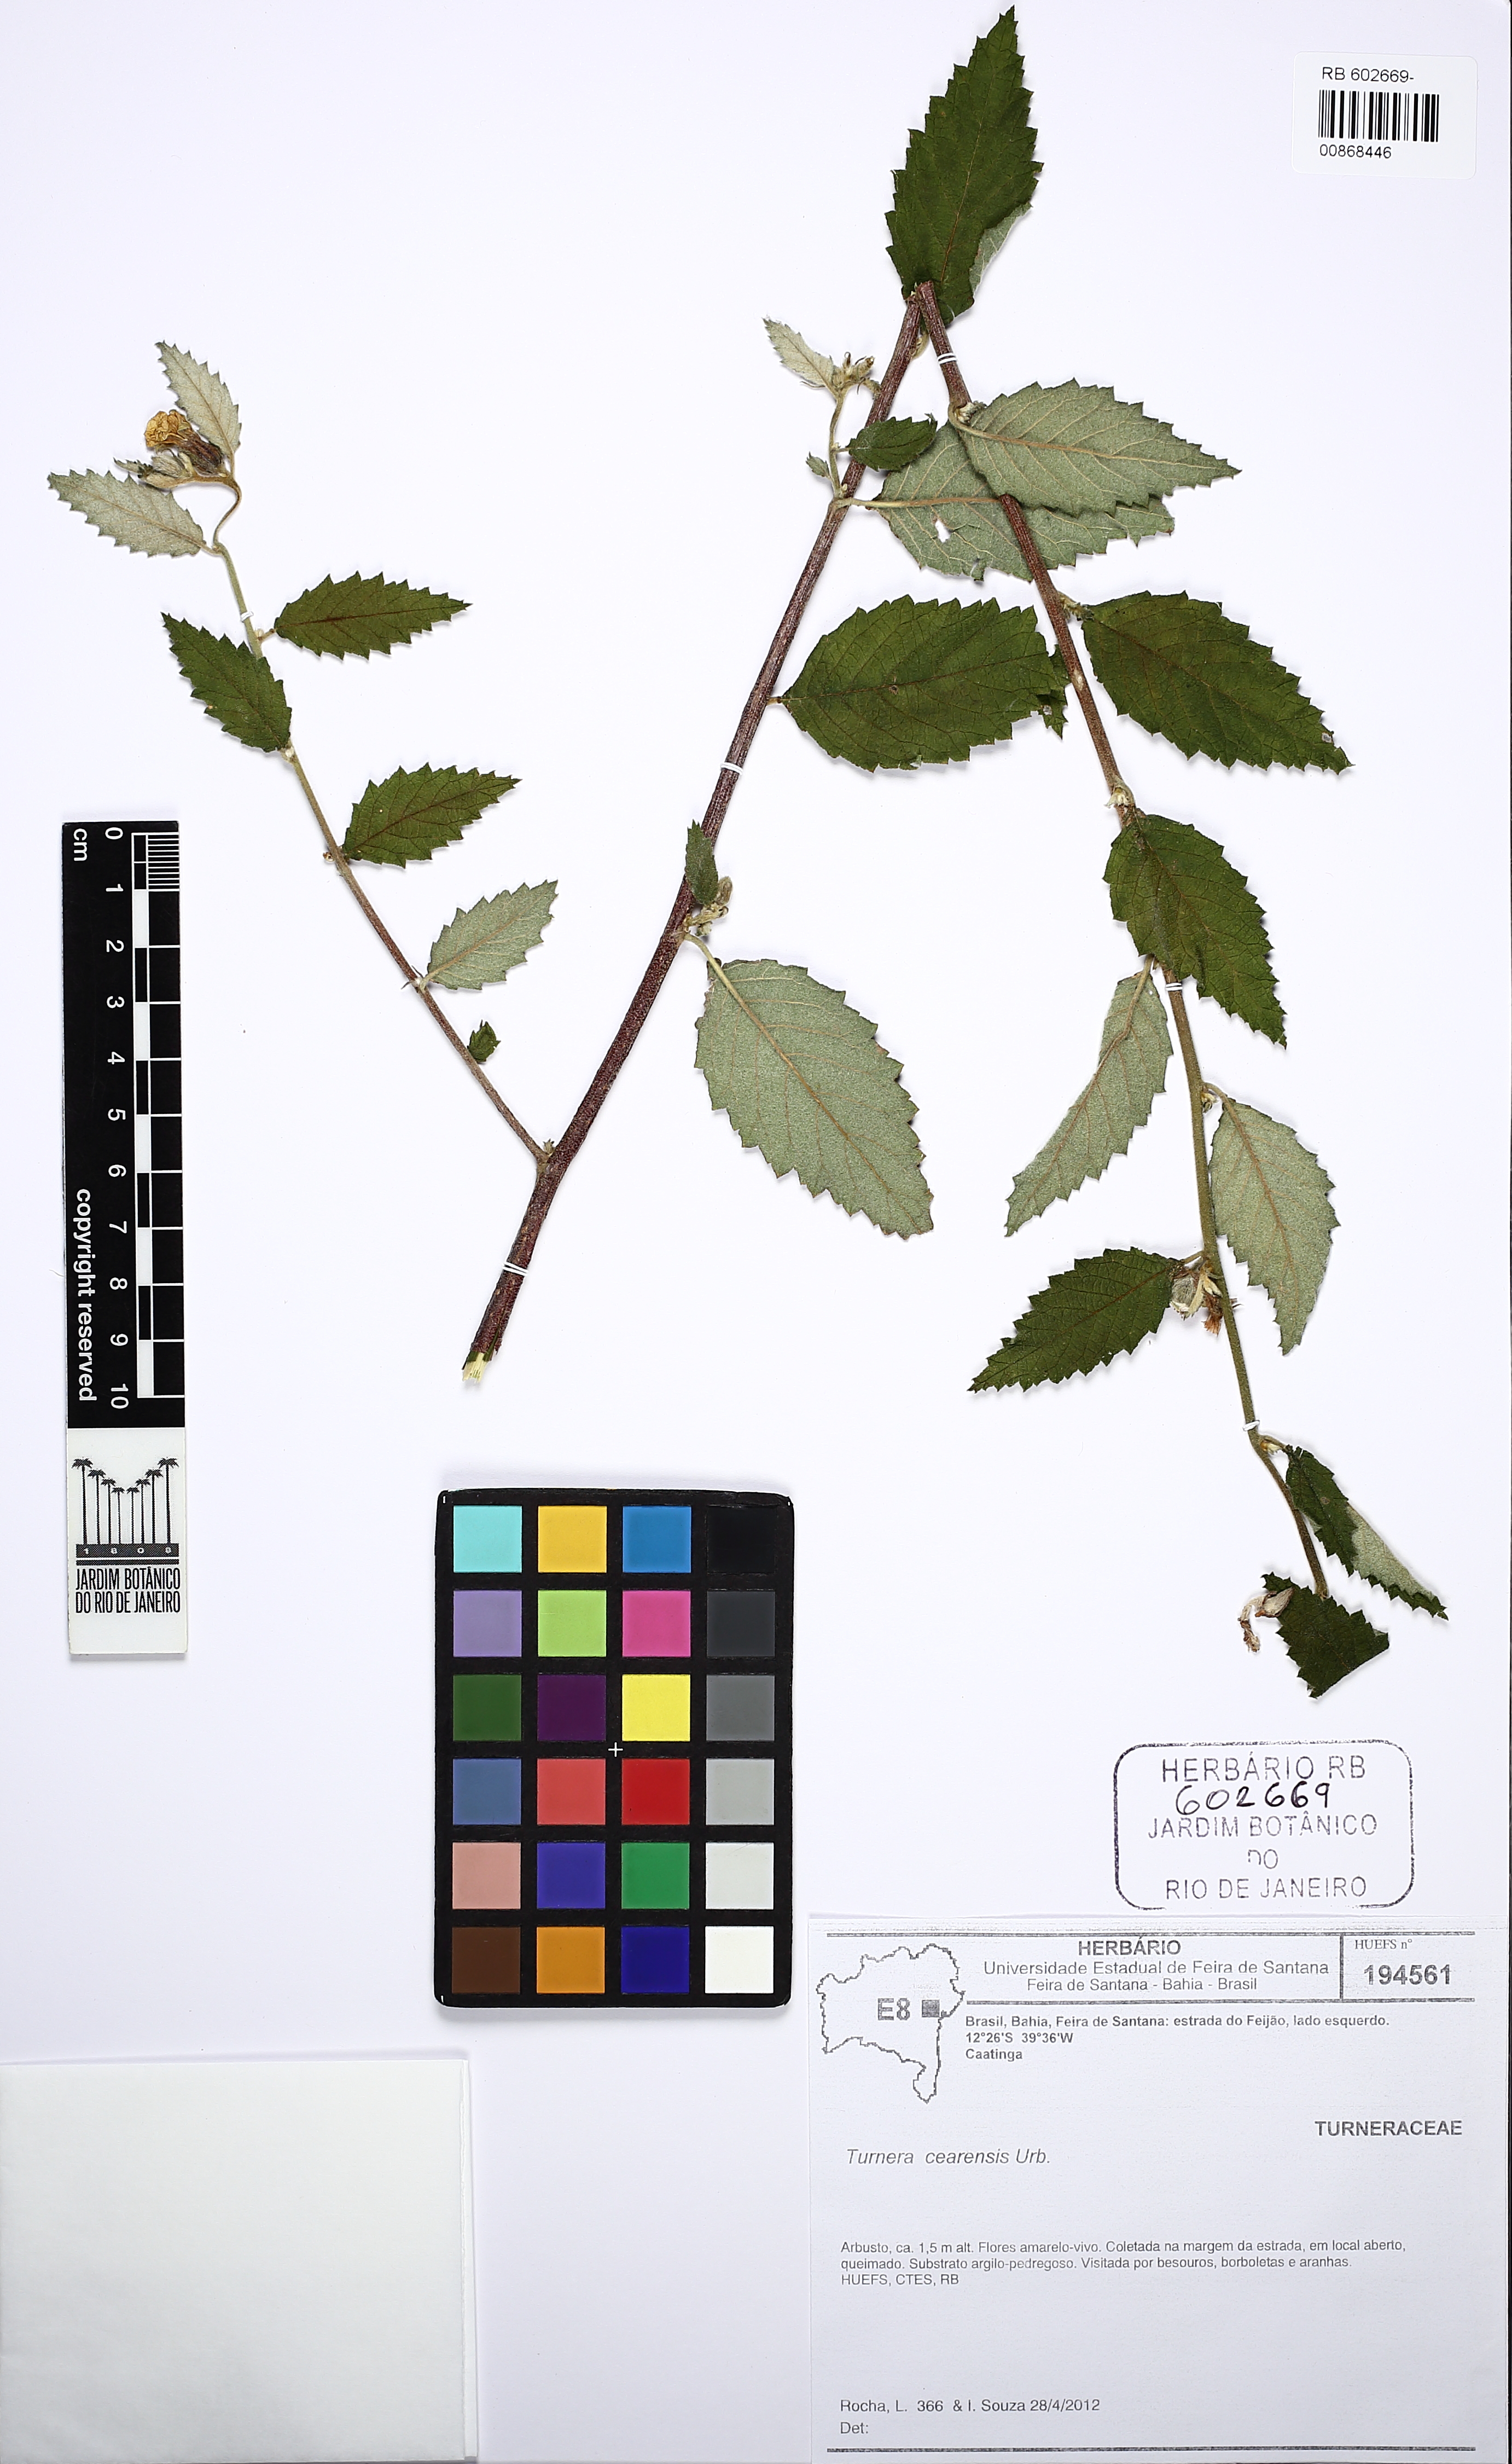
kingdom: Plantae
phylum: Tracheophyta
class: Magnoliopsida
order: Malpighiales
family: Turneraceae
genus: Turnera
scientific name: Turnera cearensis
